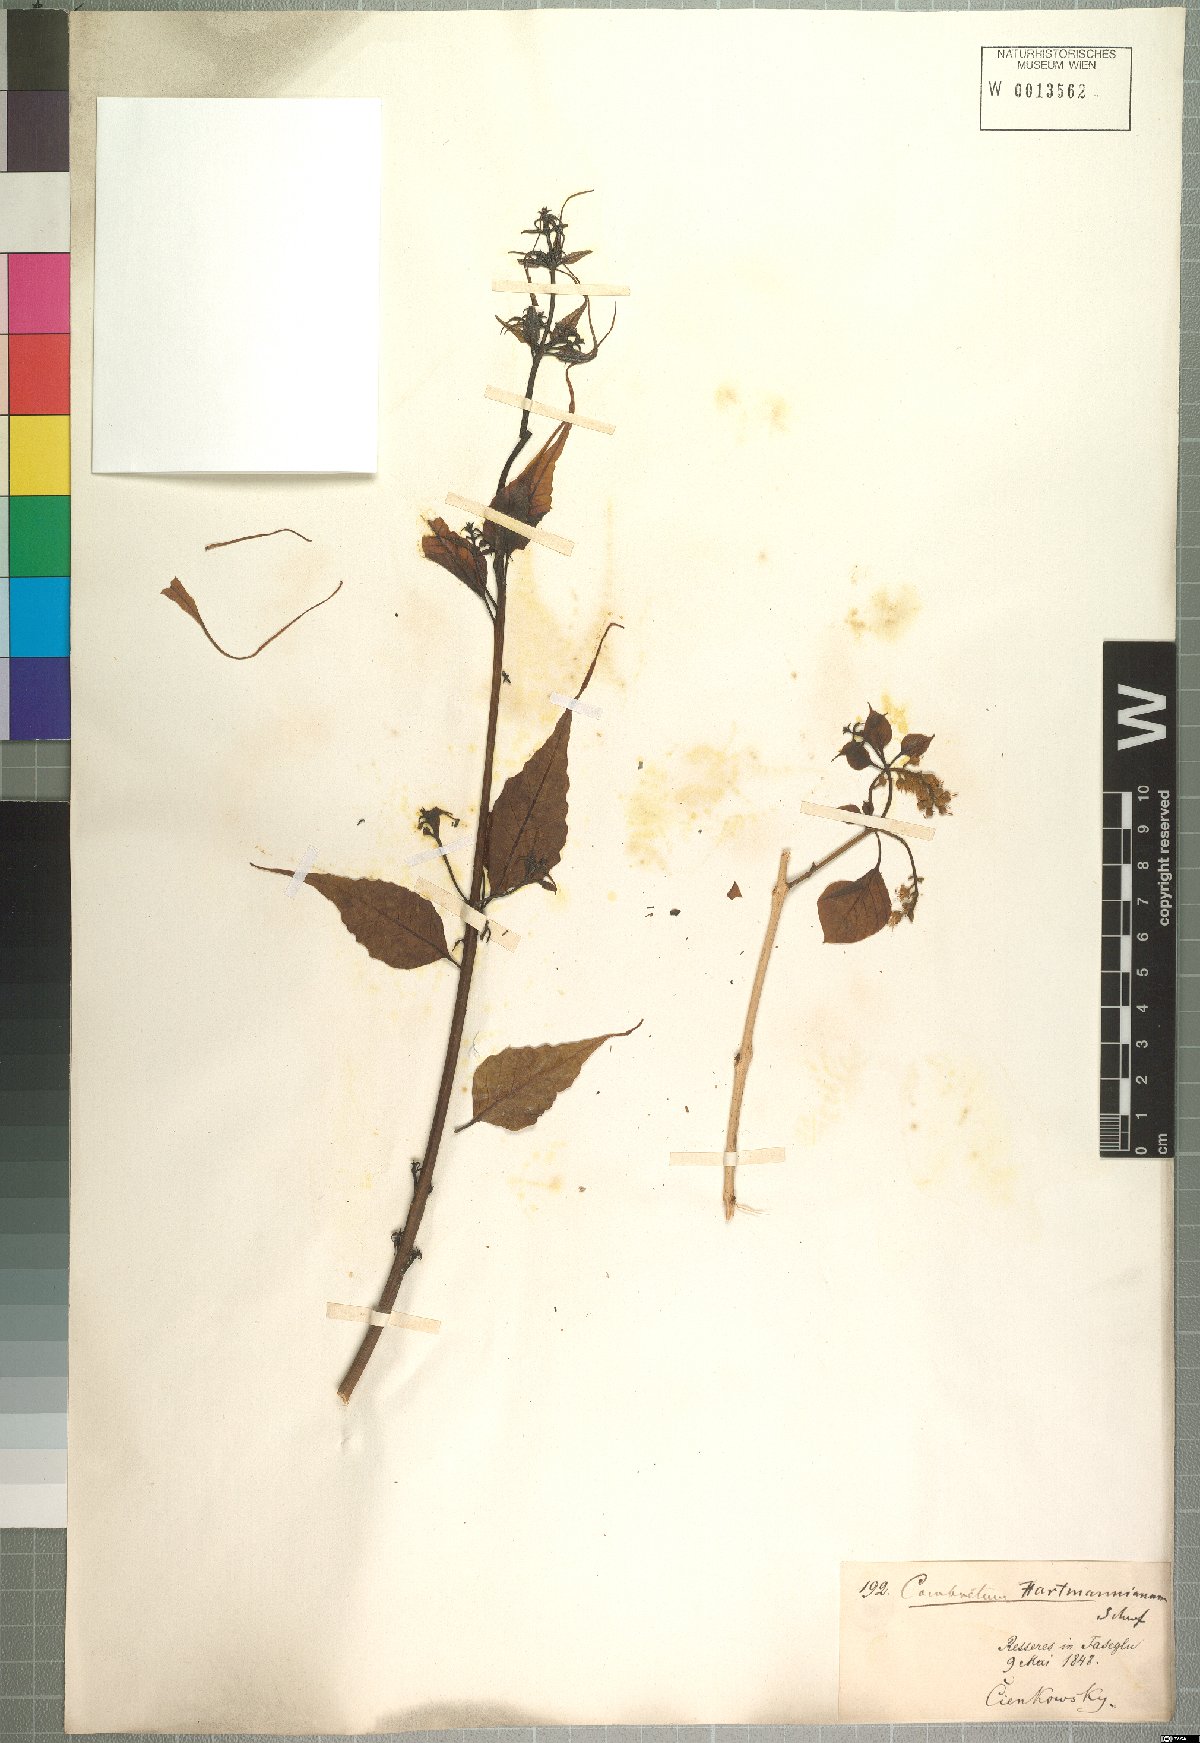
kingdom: Plantae
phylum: Tracheophyta
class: Magnoliopsida
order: Myrtales
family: Combretaceae
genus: Combretum
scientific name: Combretum hartmannianum
